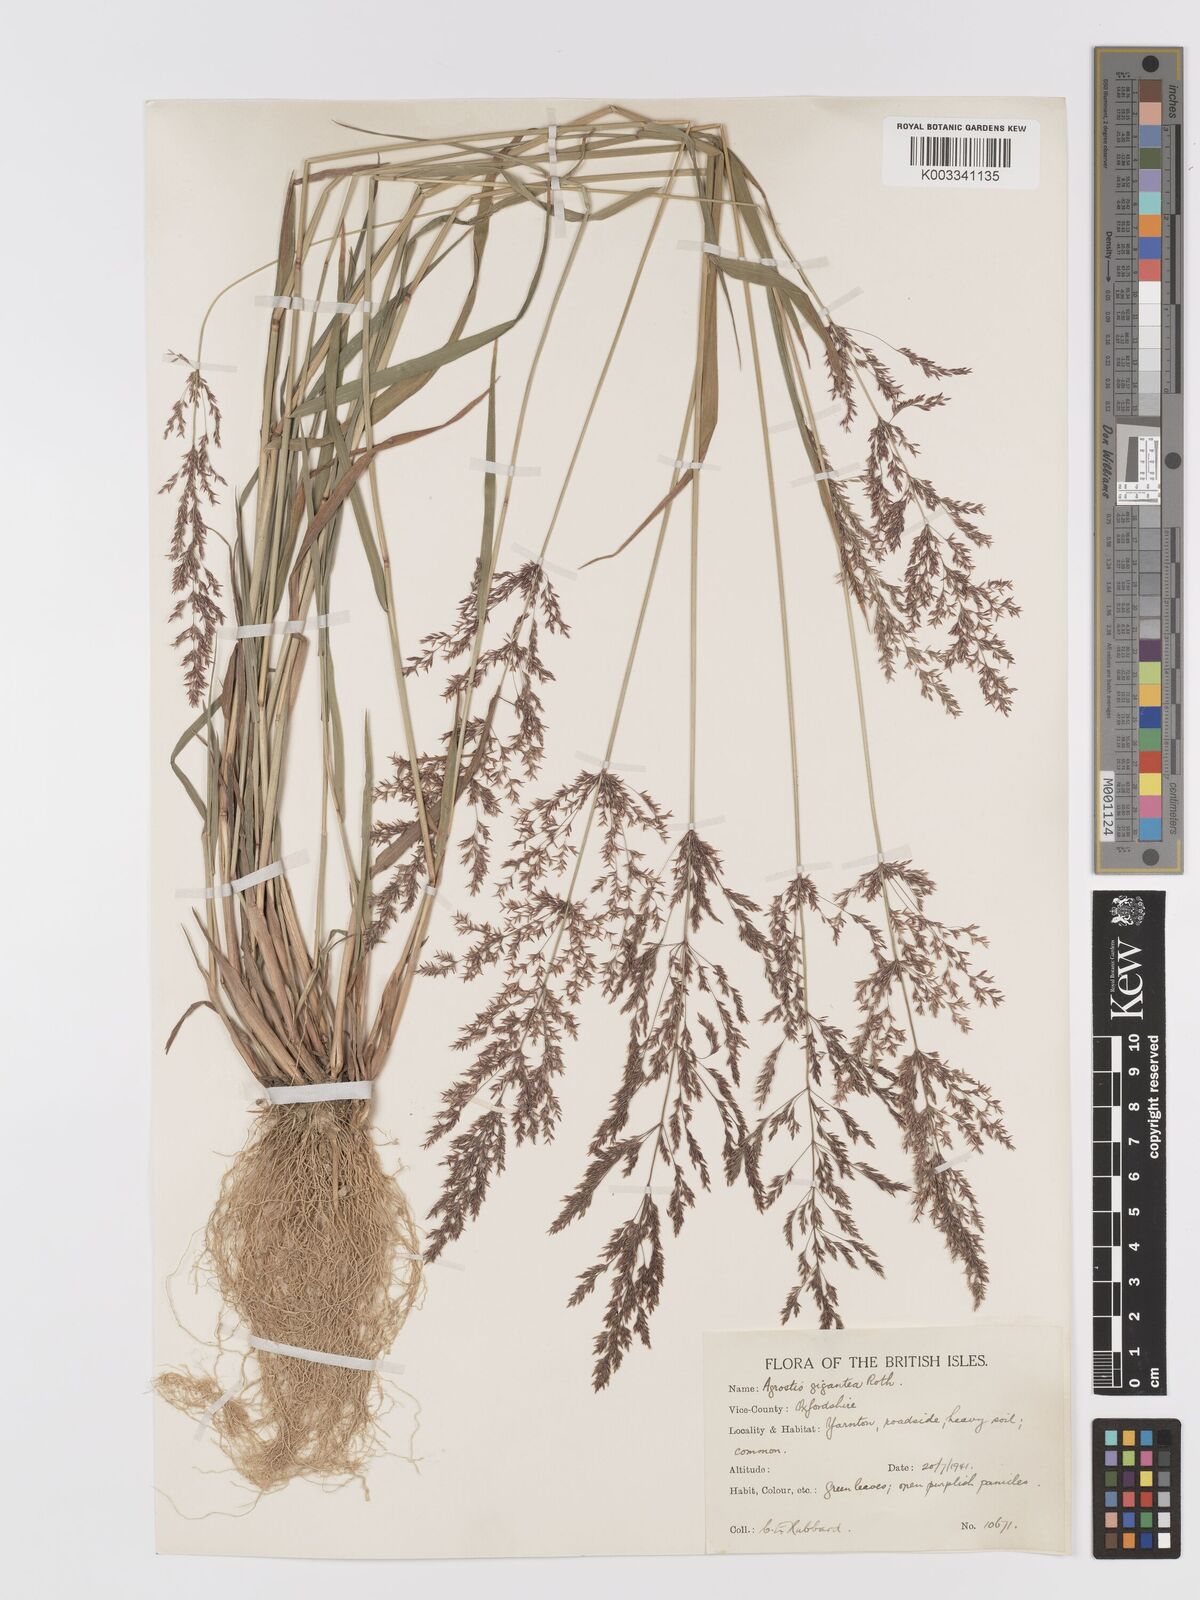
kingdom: Plantae
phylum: Tracheophyta
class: Liliopsida
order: Poales
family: Poaceae
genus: Agrostis
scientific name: Agrostis gigantea
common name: Black bent
